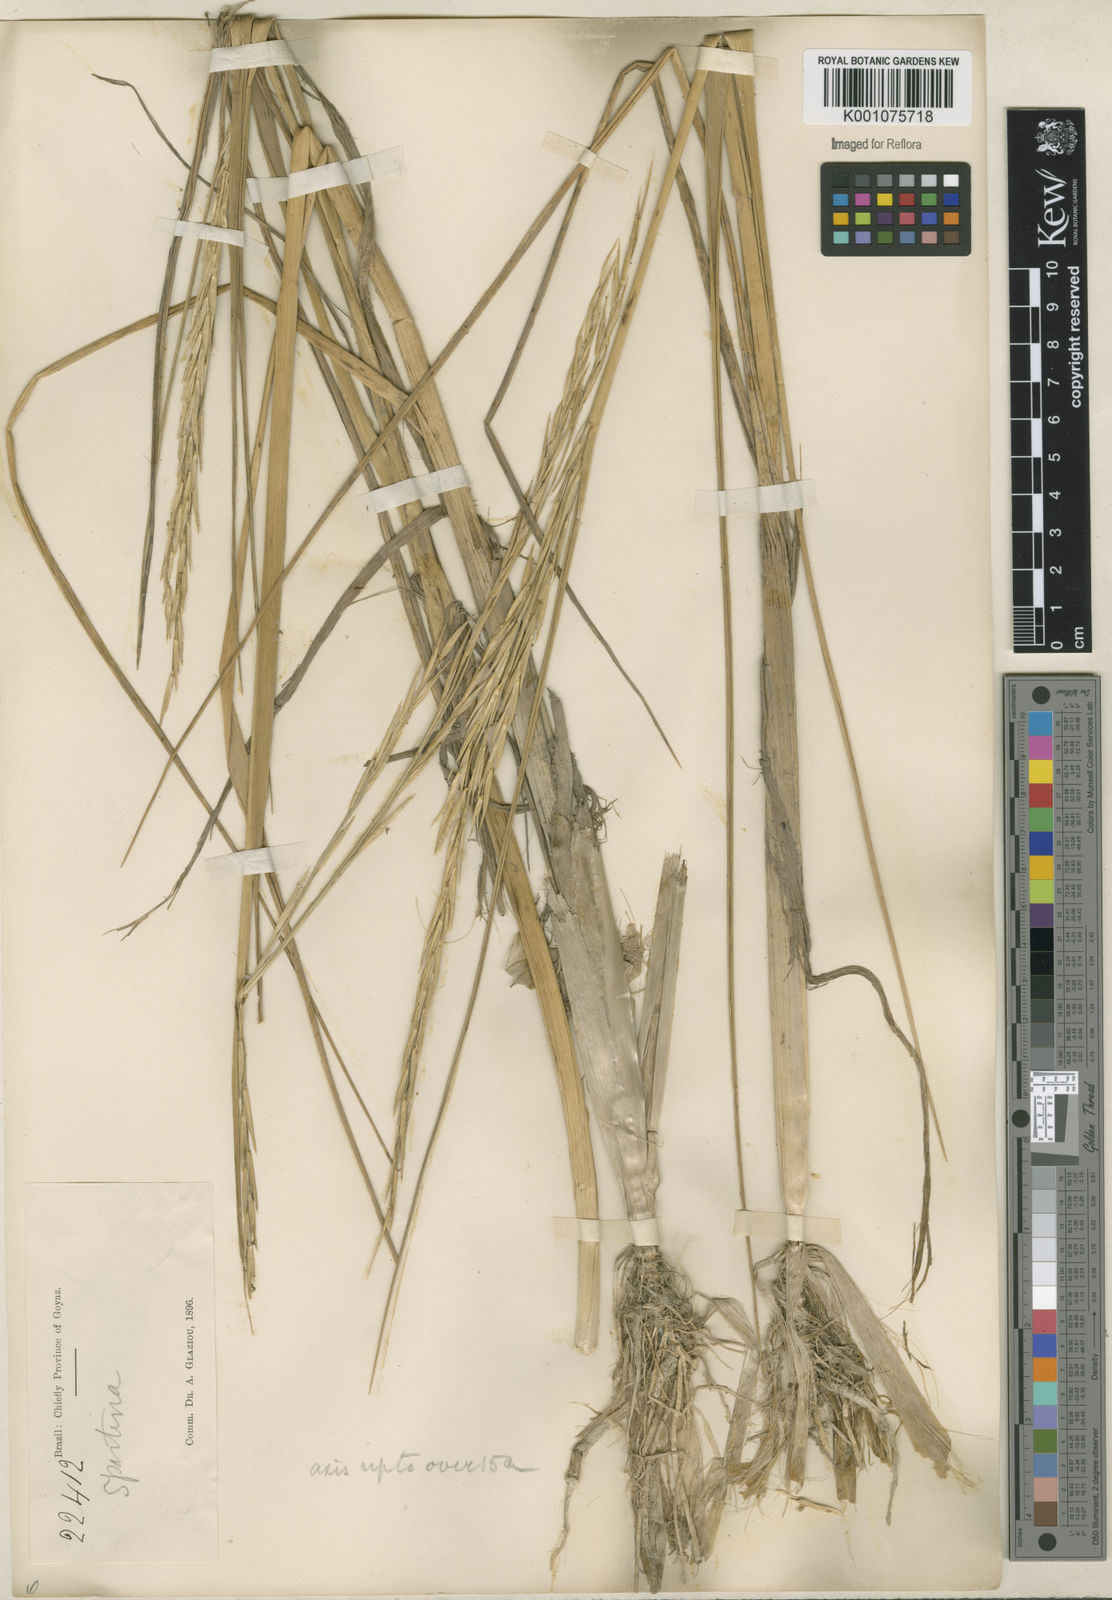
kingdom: Animalia
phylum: Mollusca
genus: Spartina
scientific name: Spartina
